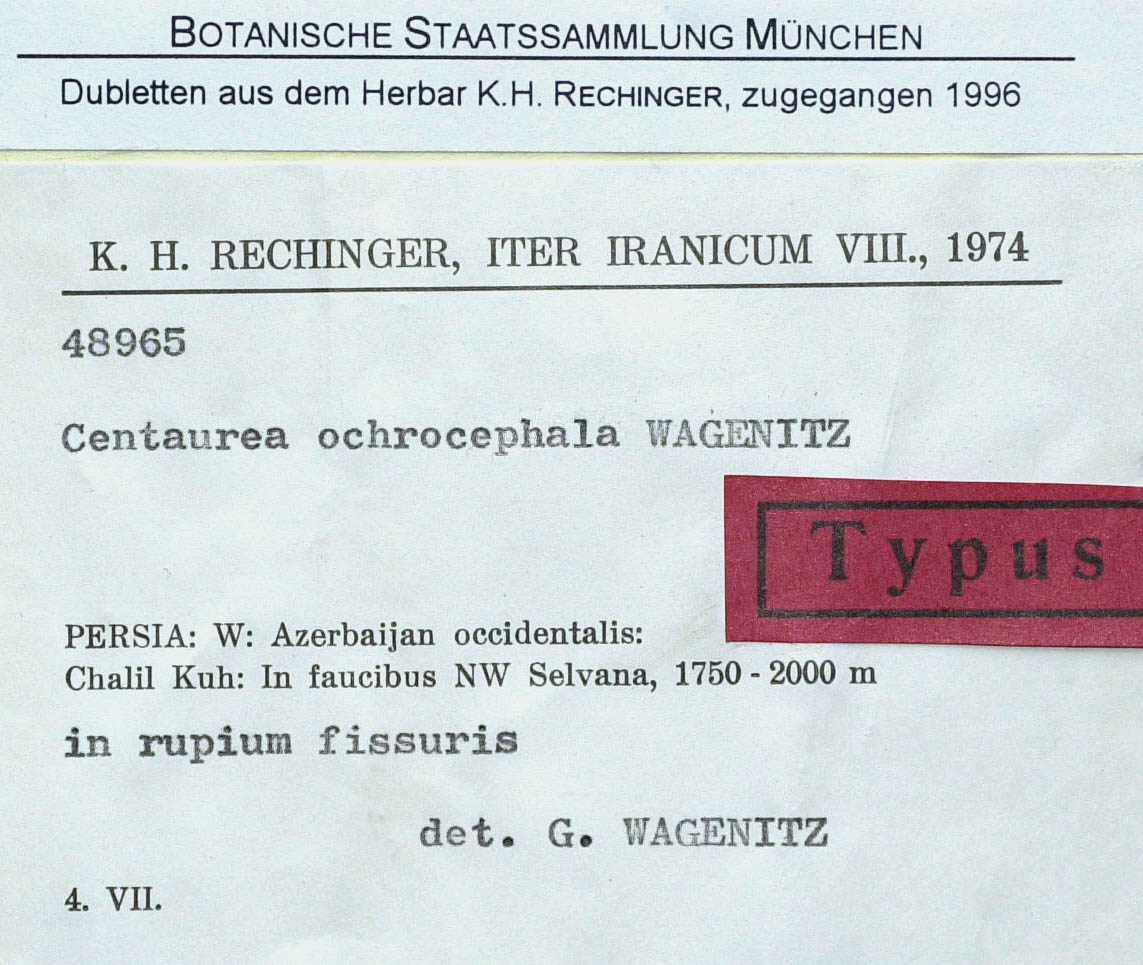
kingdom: Plantae
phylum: Tracheophyta
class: Magnoliopsida
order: Asterales
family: Asteraceae
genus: Centaurea
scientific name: Centaurea ochrocephala
